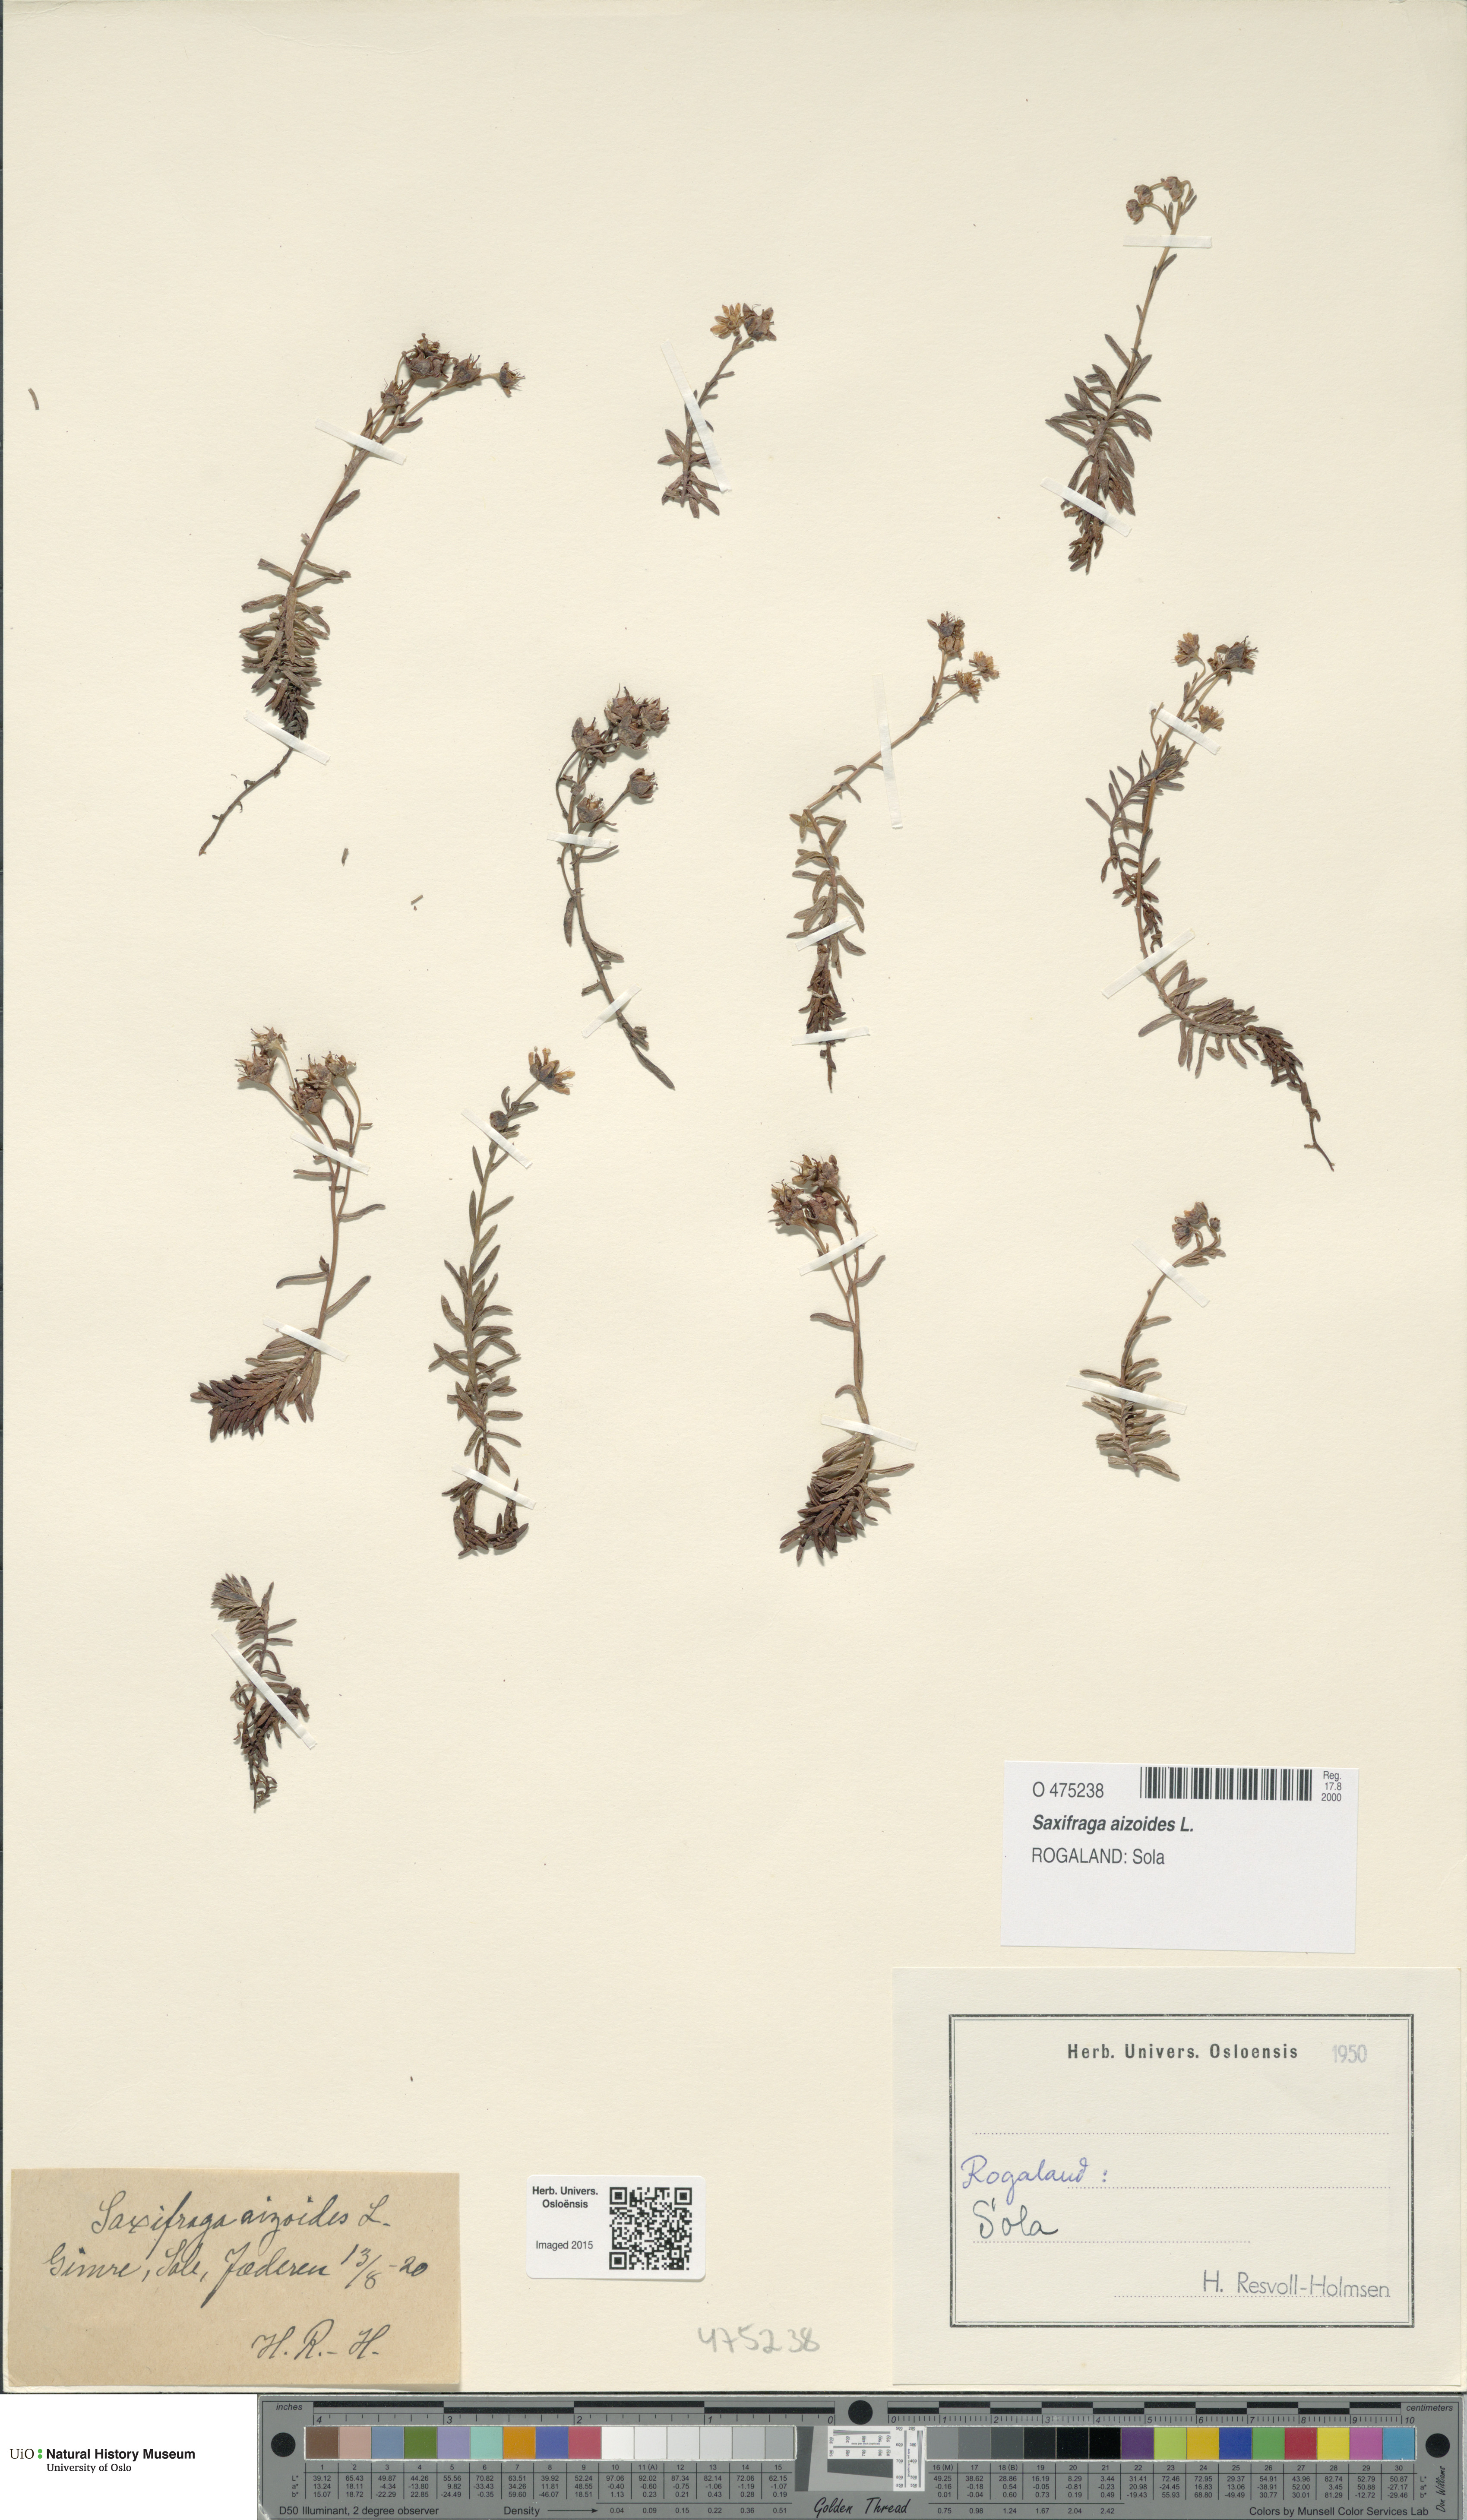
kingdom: Plantae
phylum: Tracheophyta
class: Magnoliopsida
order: Saxifragales
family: Saxifragaceae
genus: Saxifraga
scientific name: Saxifraga aizoides
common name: Yellow mountain saxifrage
